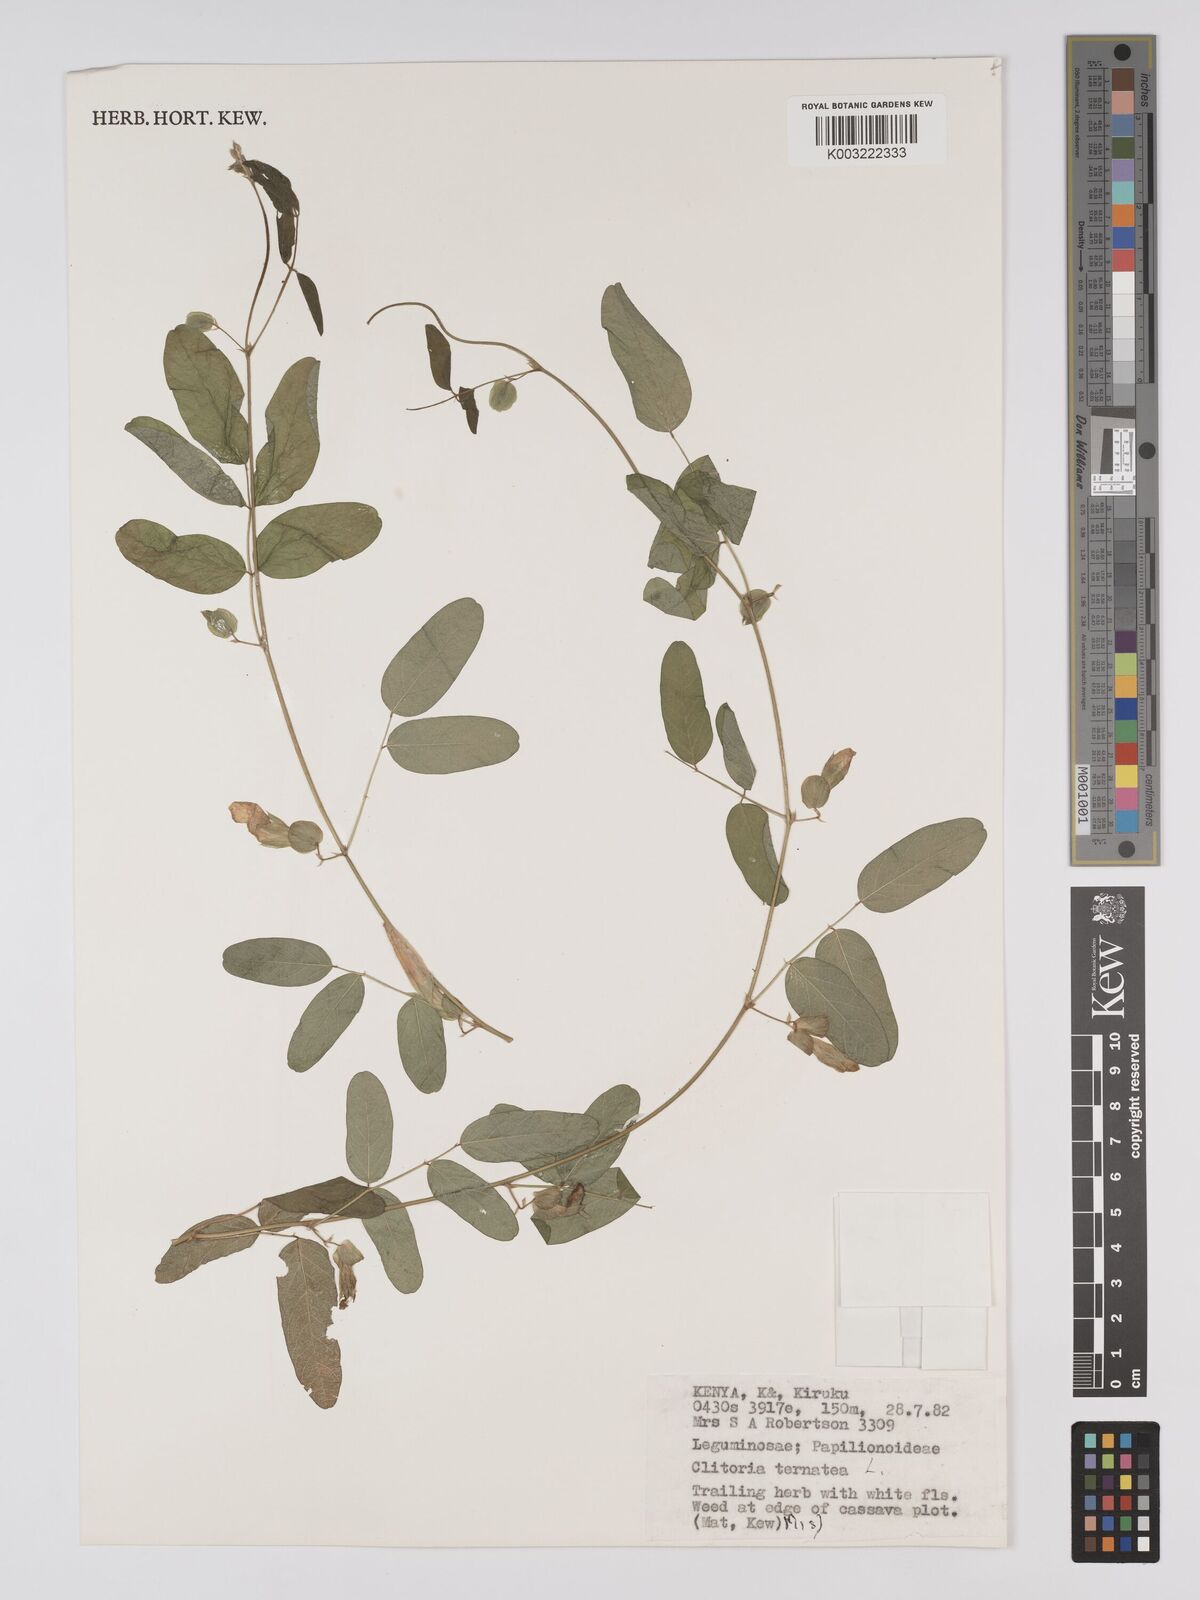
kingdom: Plantae
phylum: Tracheophyta
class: Magnoliopsida
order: Fabales
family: Fabaceae
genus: Clitoria
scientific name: Clitoria ternatea
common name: Asian pigeonwings
